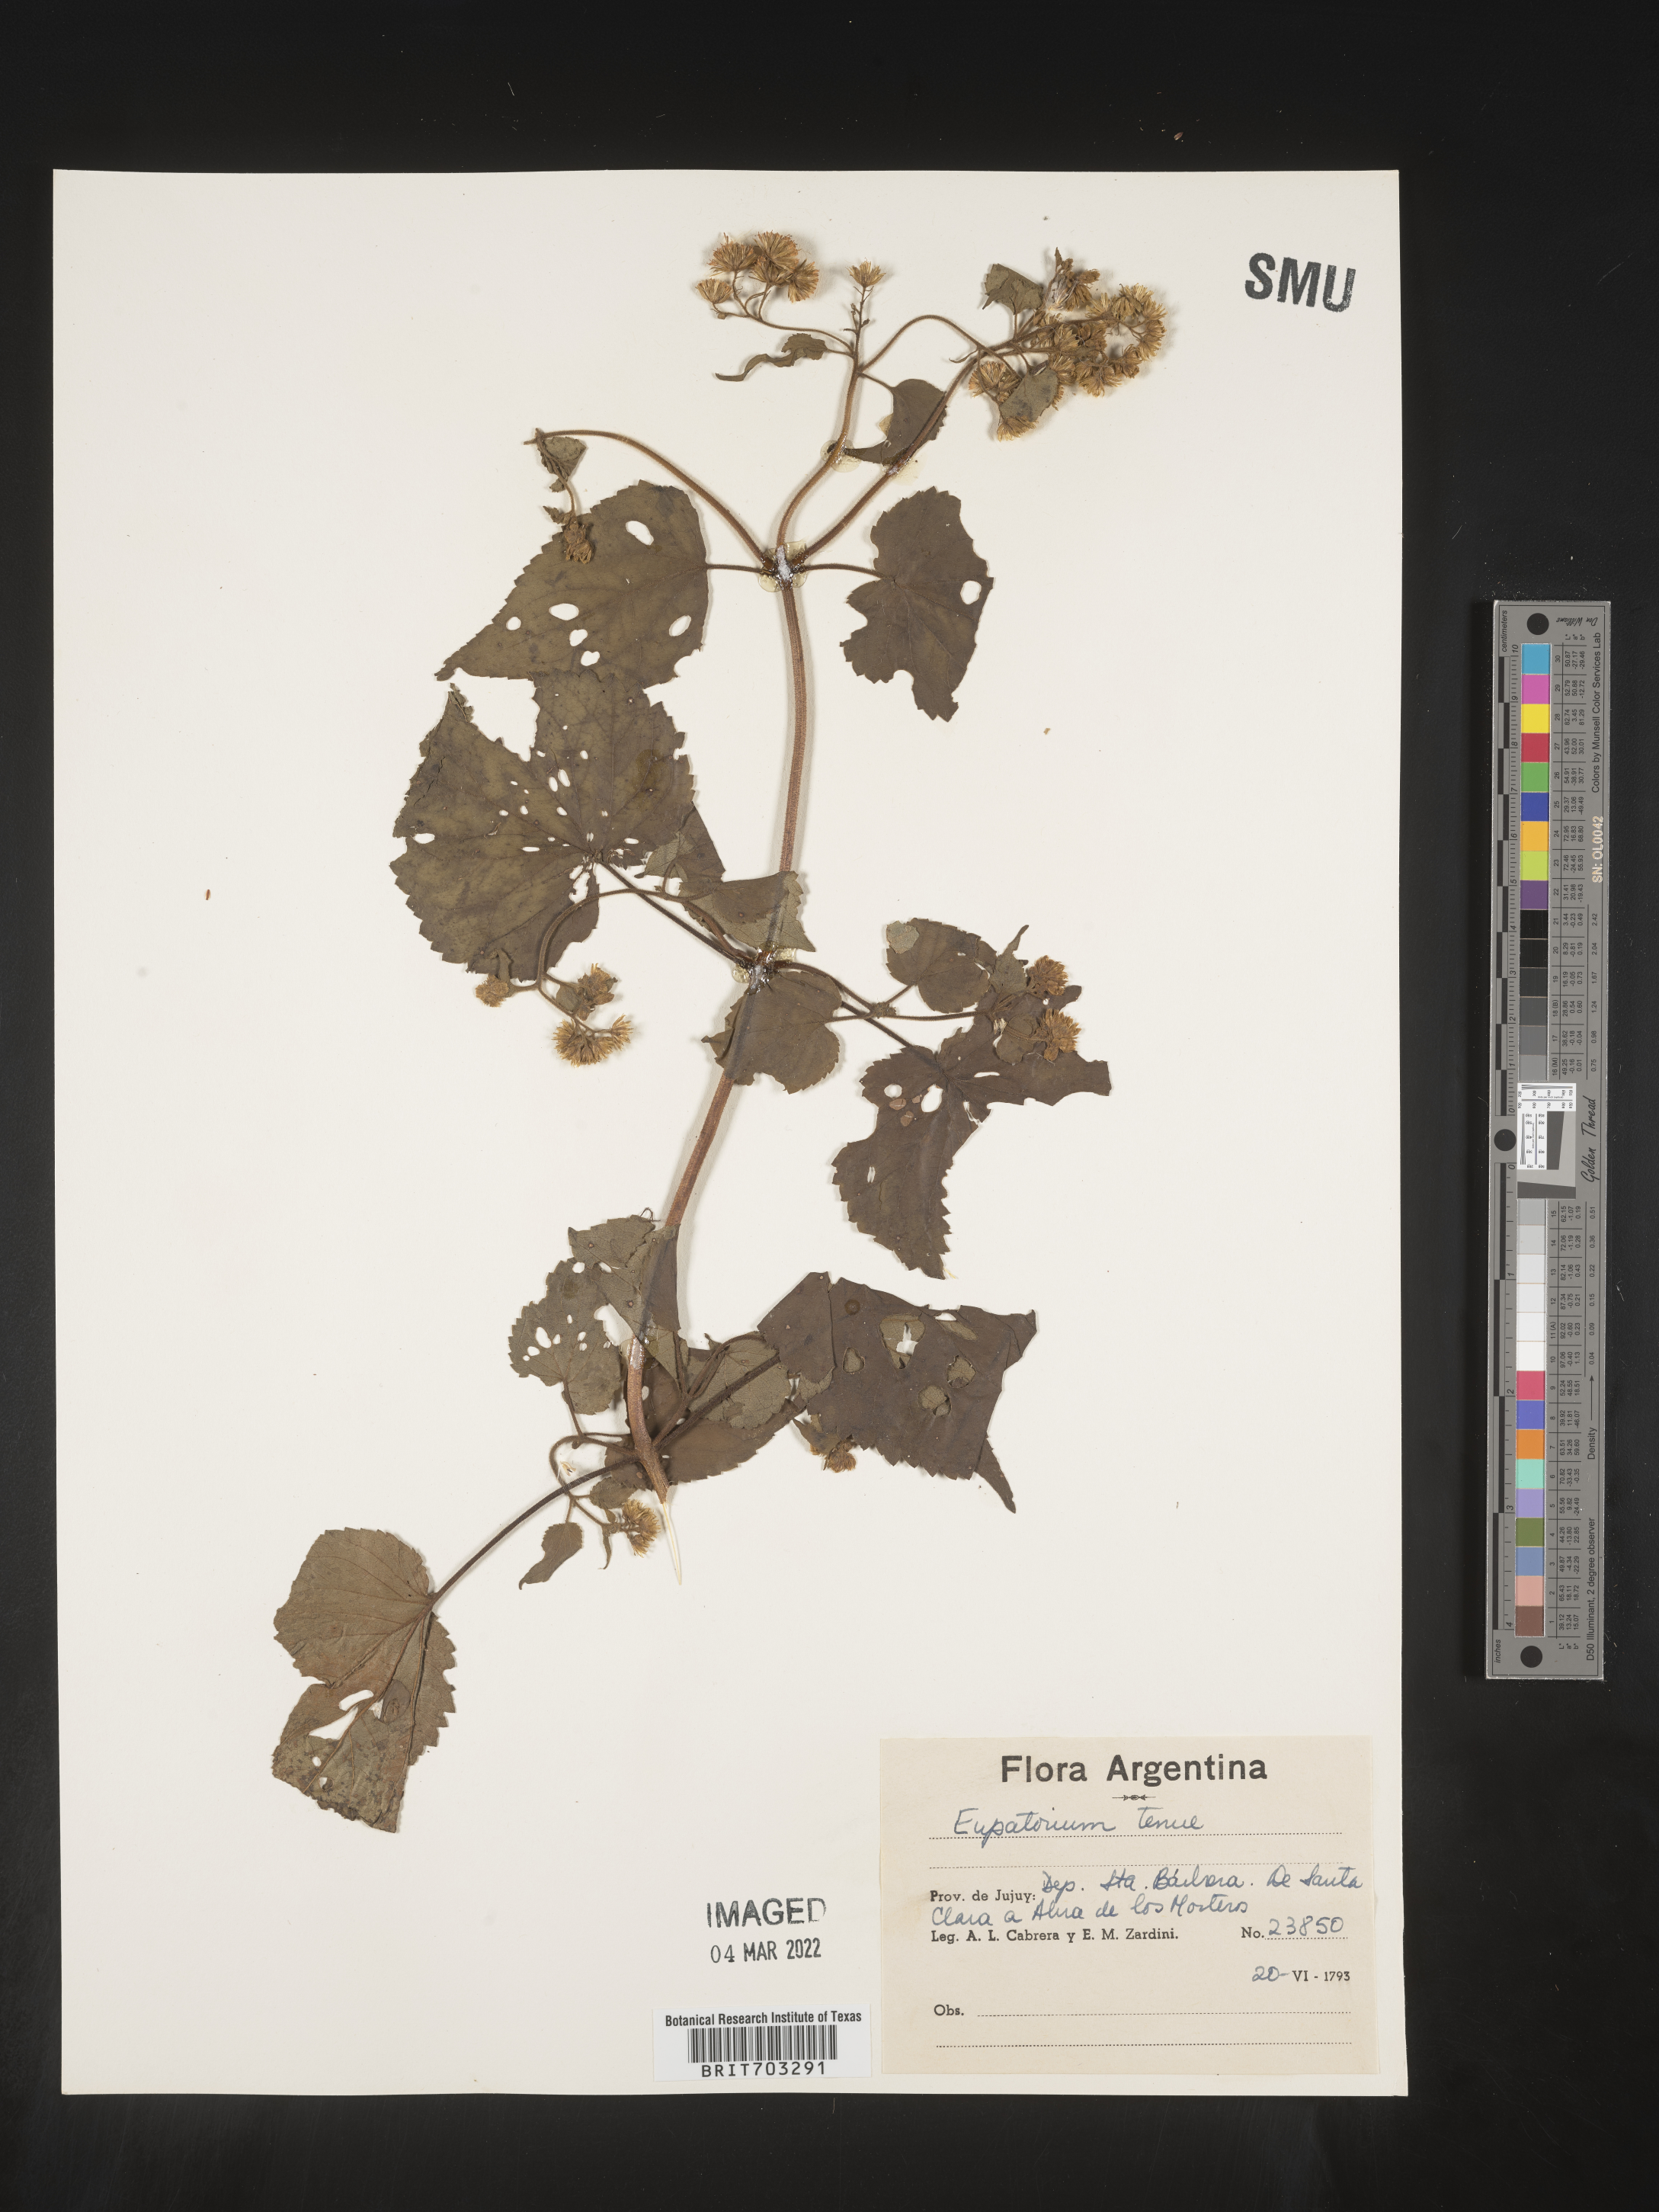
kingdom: Plantae
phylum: Tracheophyta
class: Magnoliopsida
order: Asterales
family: Asteraceae
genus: Eupatorium
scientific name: Eupatorium
